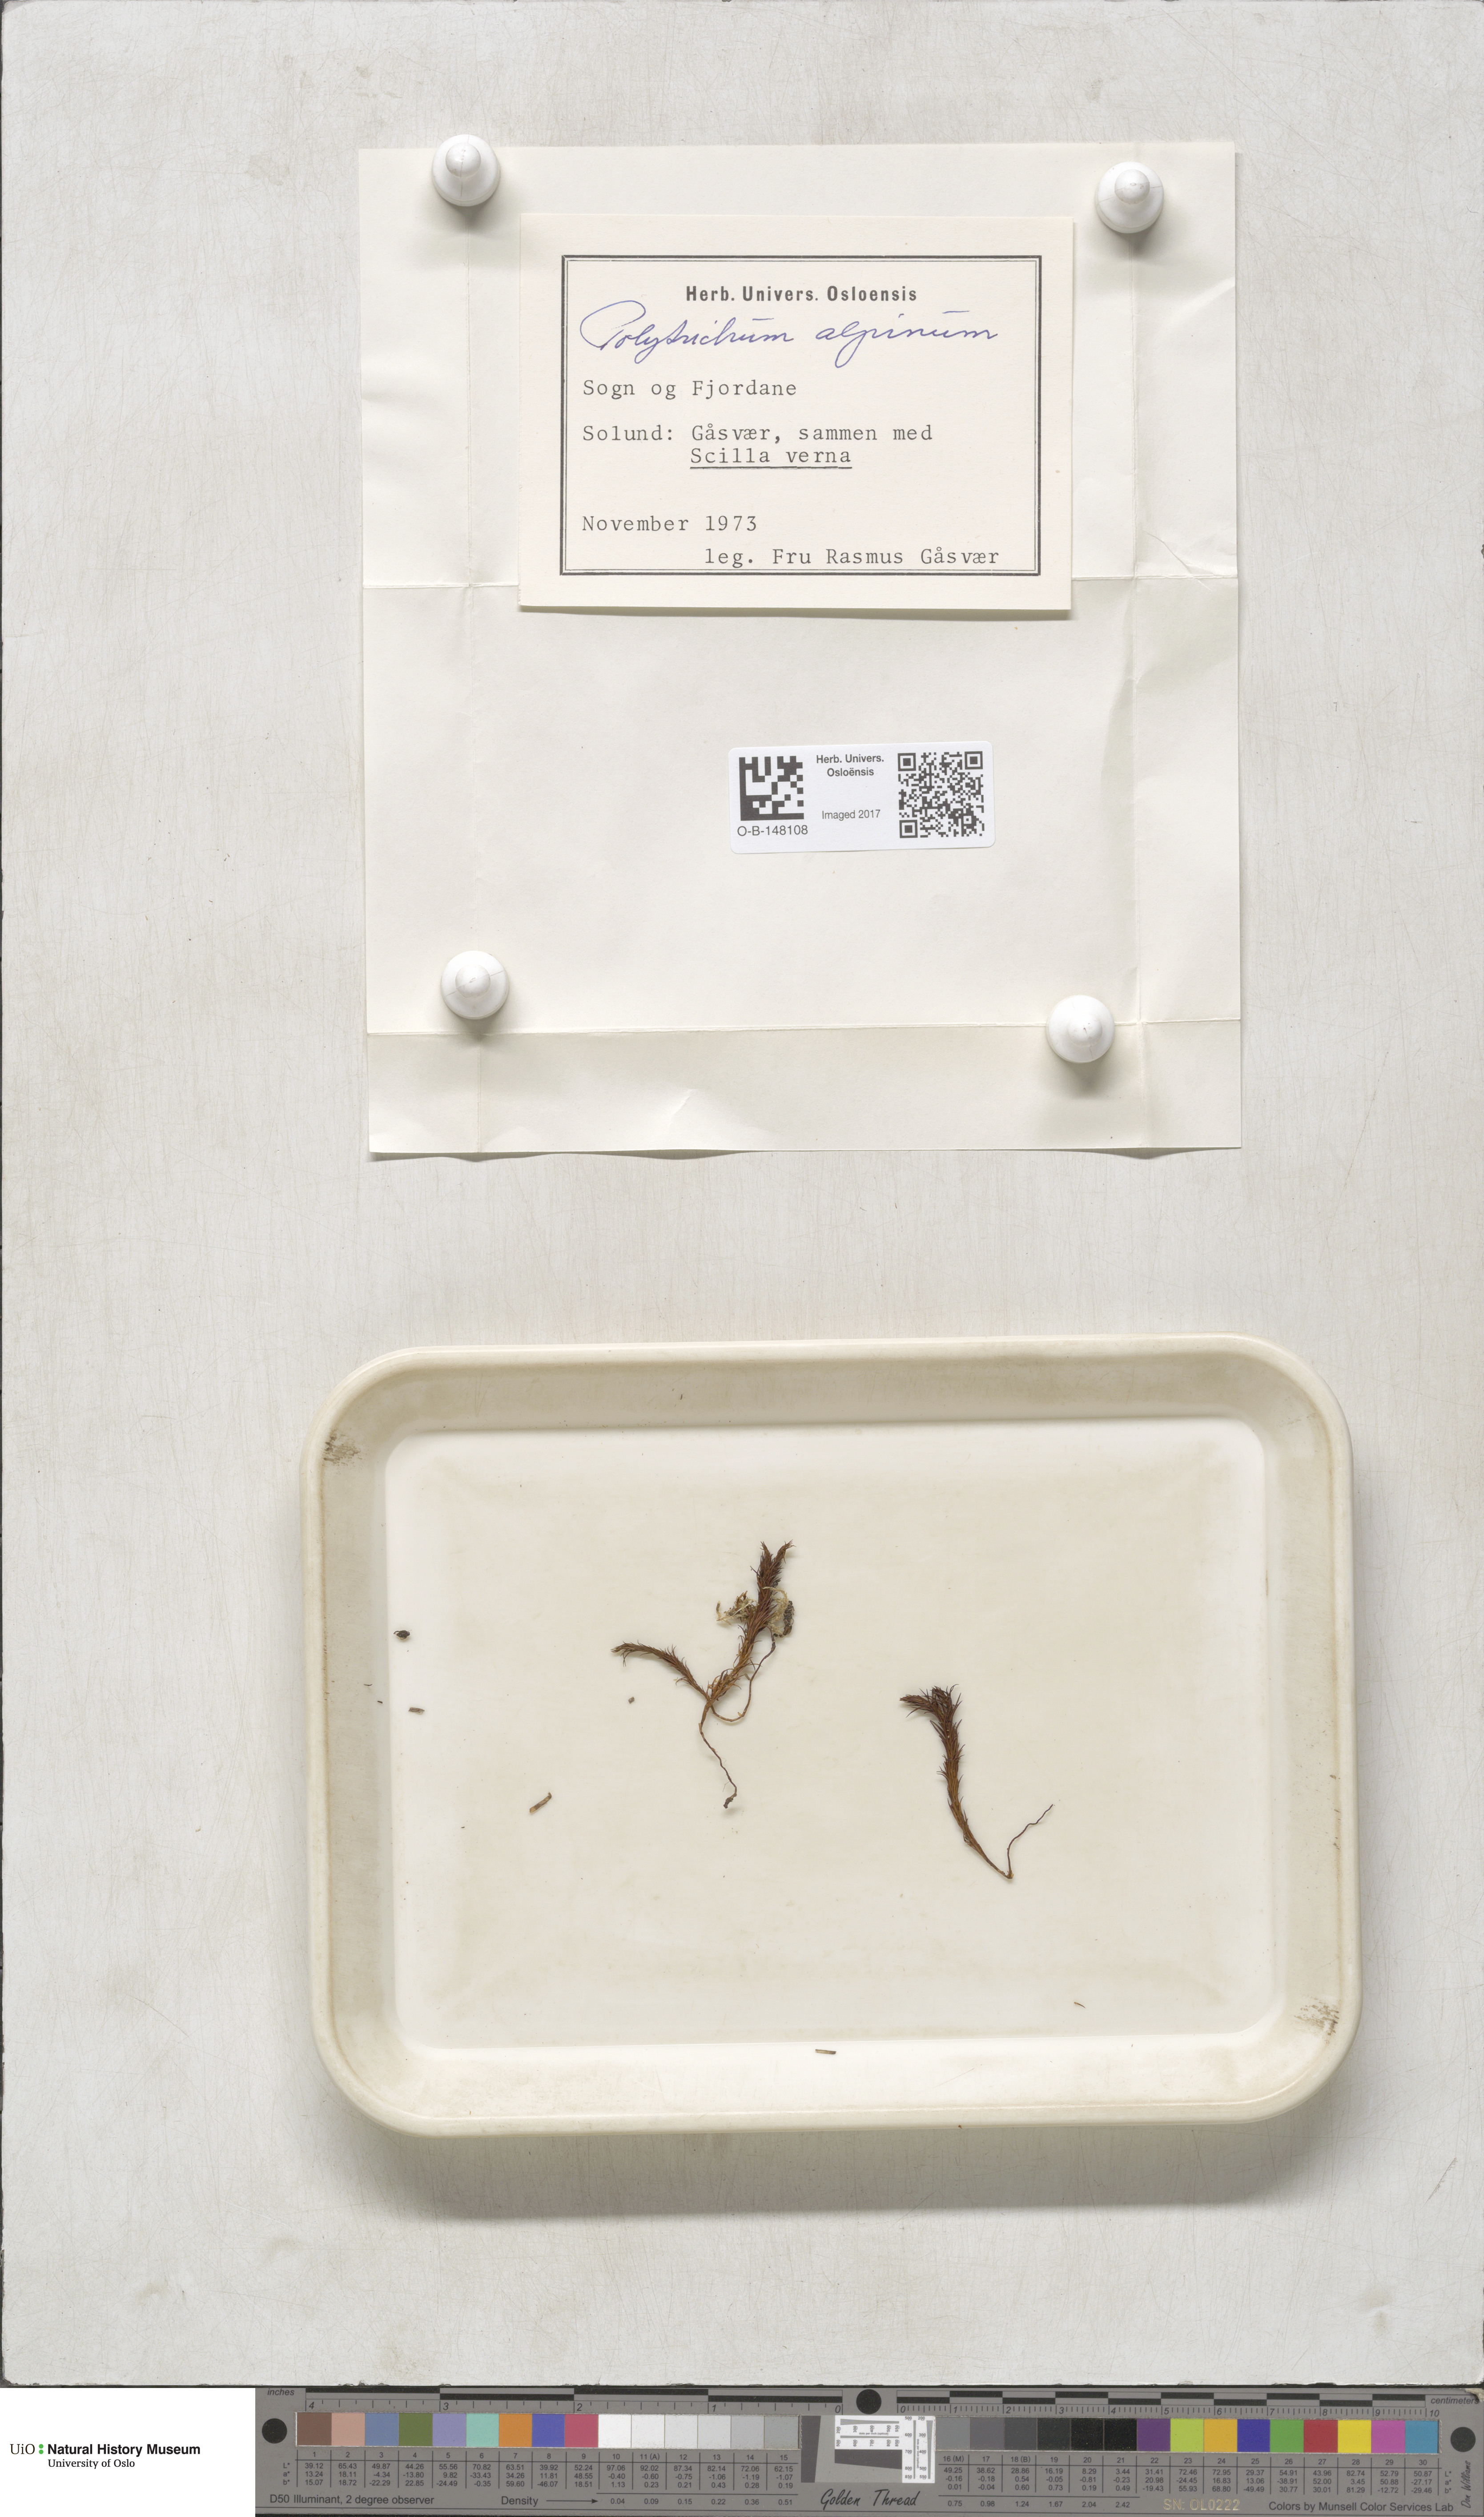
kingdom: Plantae
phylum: Bryophyta
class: Polytrichopsida
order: Polytrichales
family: Polytrichaceae
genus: Polytrichastrum
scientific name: Polytrichastrum alpinum
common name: Alpine haircap
